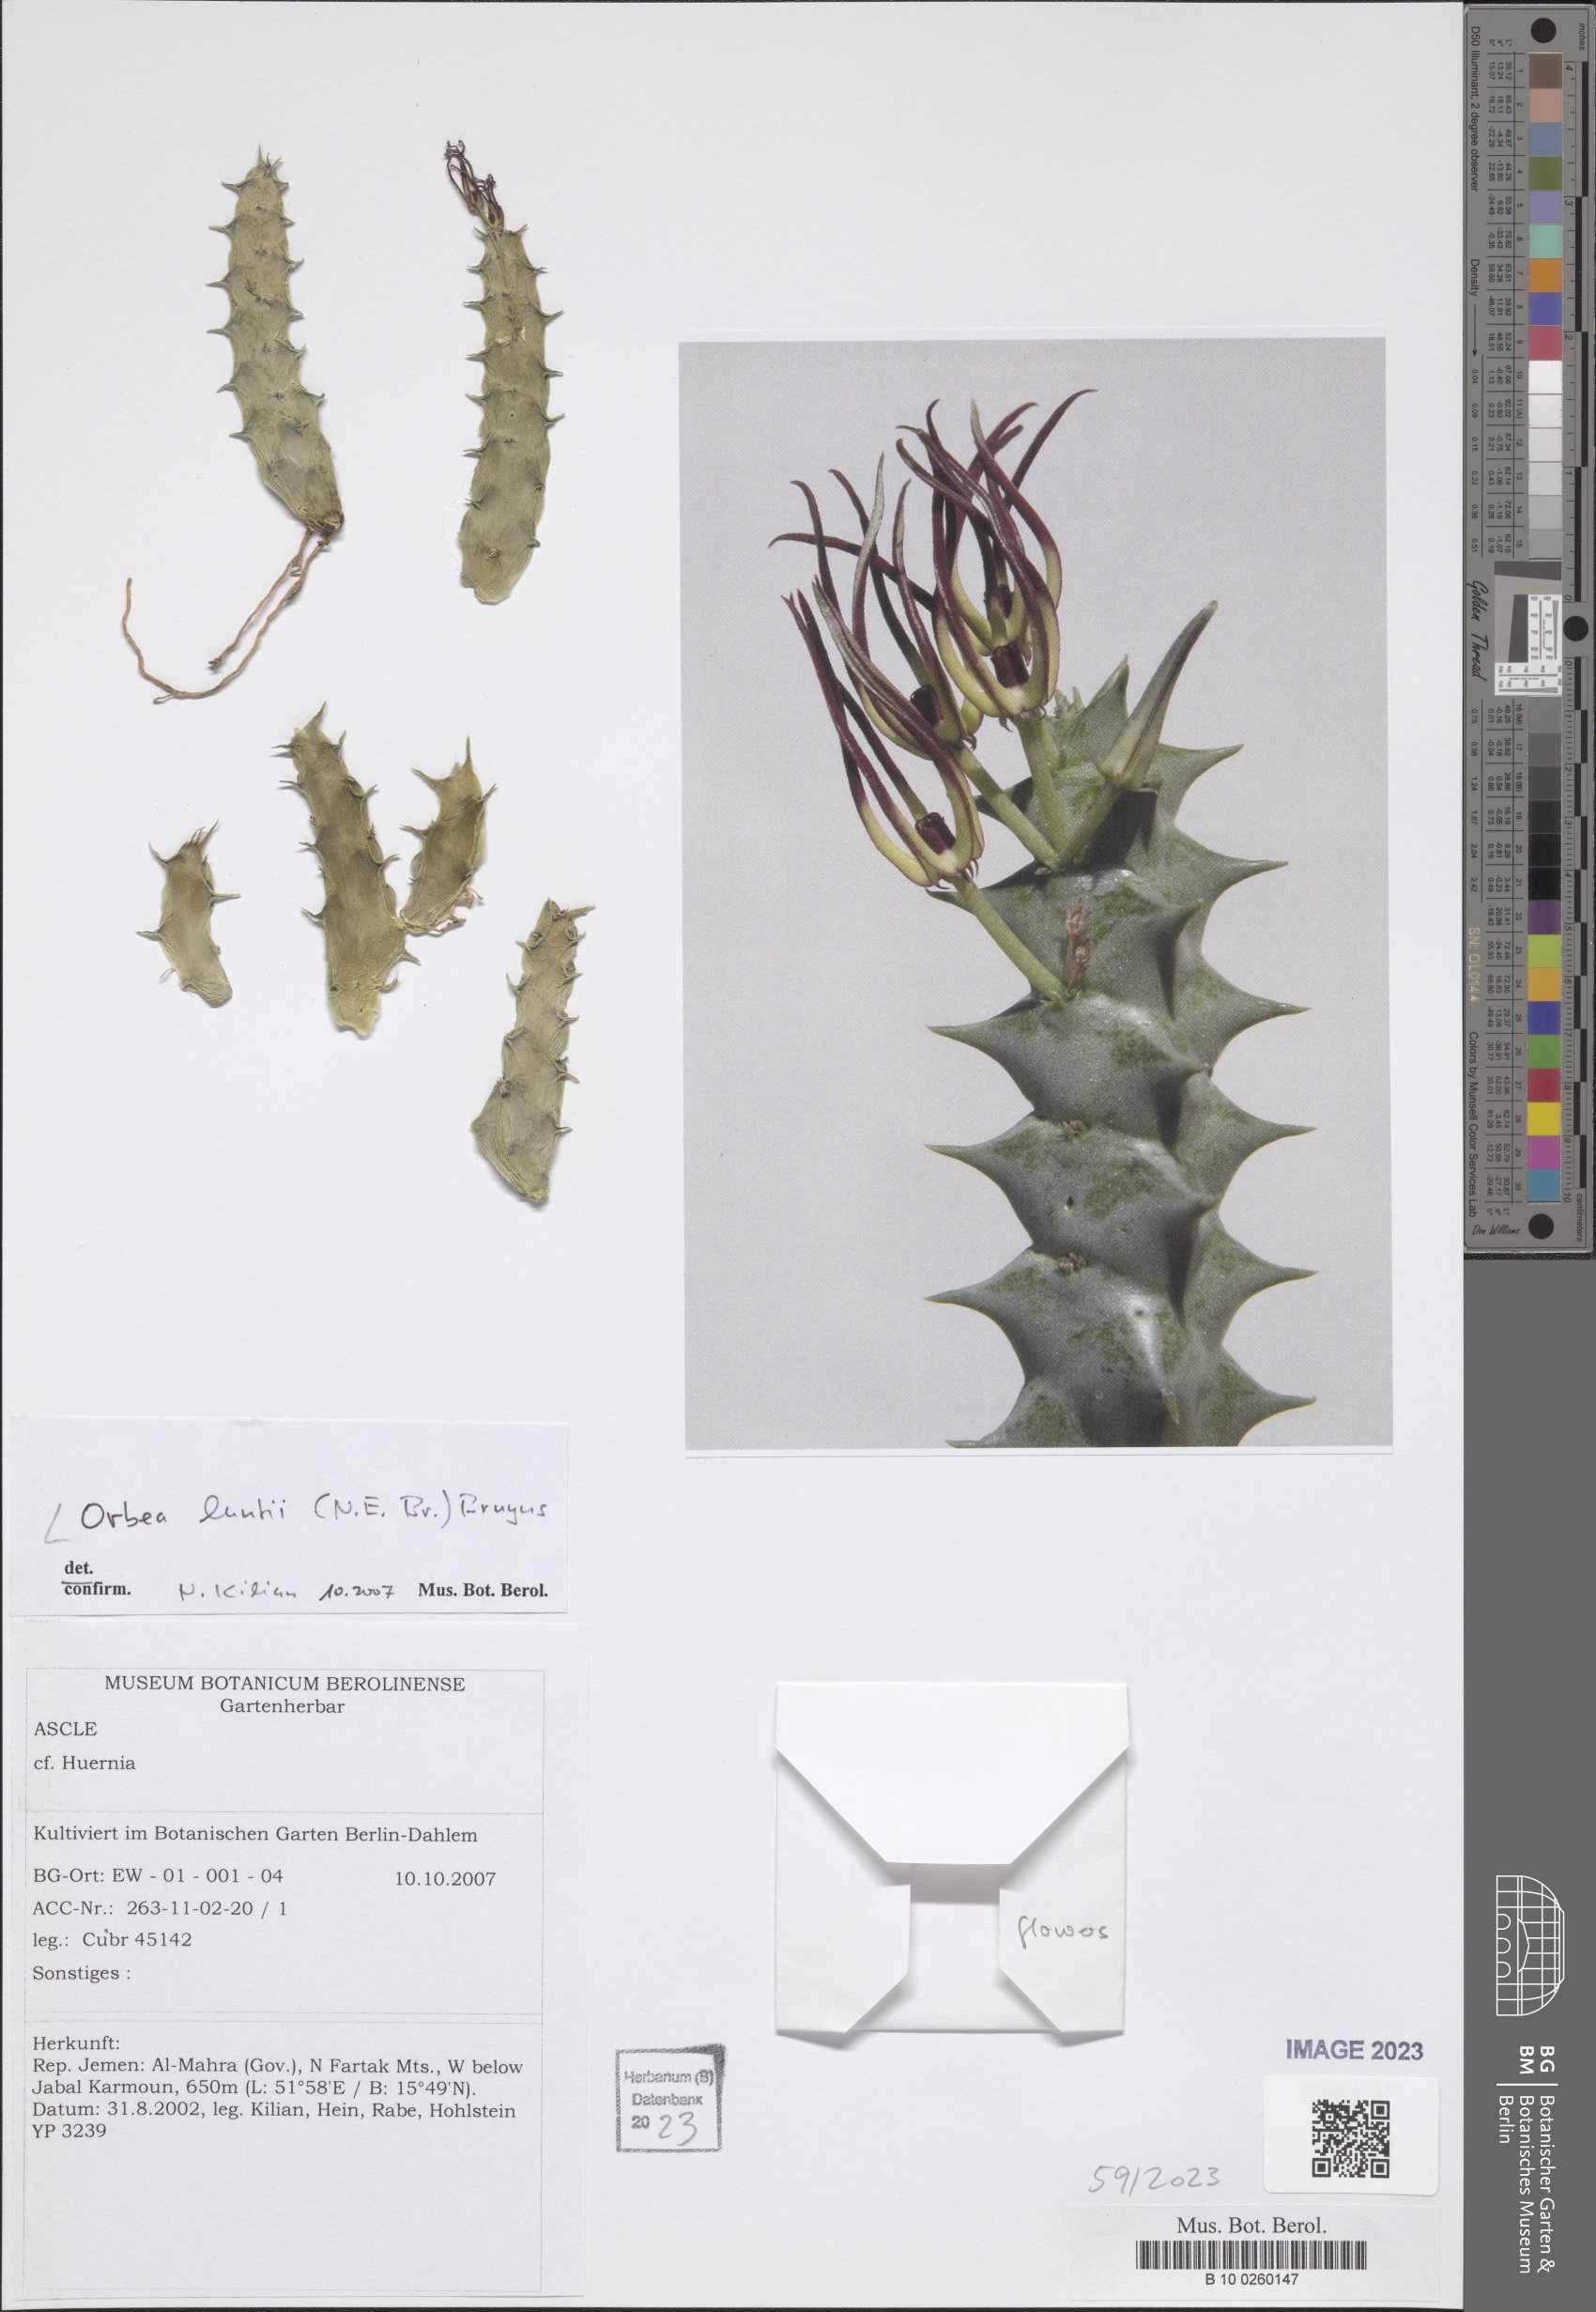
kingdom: Plantae
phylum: Tracheophyta
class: Magnoliopsida
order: Gentianales
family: Apocynaceae
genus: Ceropegia
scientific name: Ceropegia luntii
